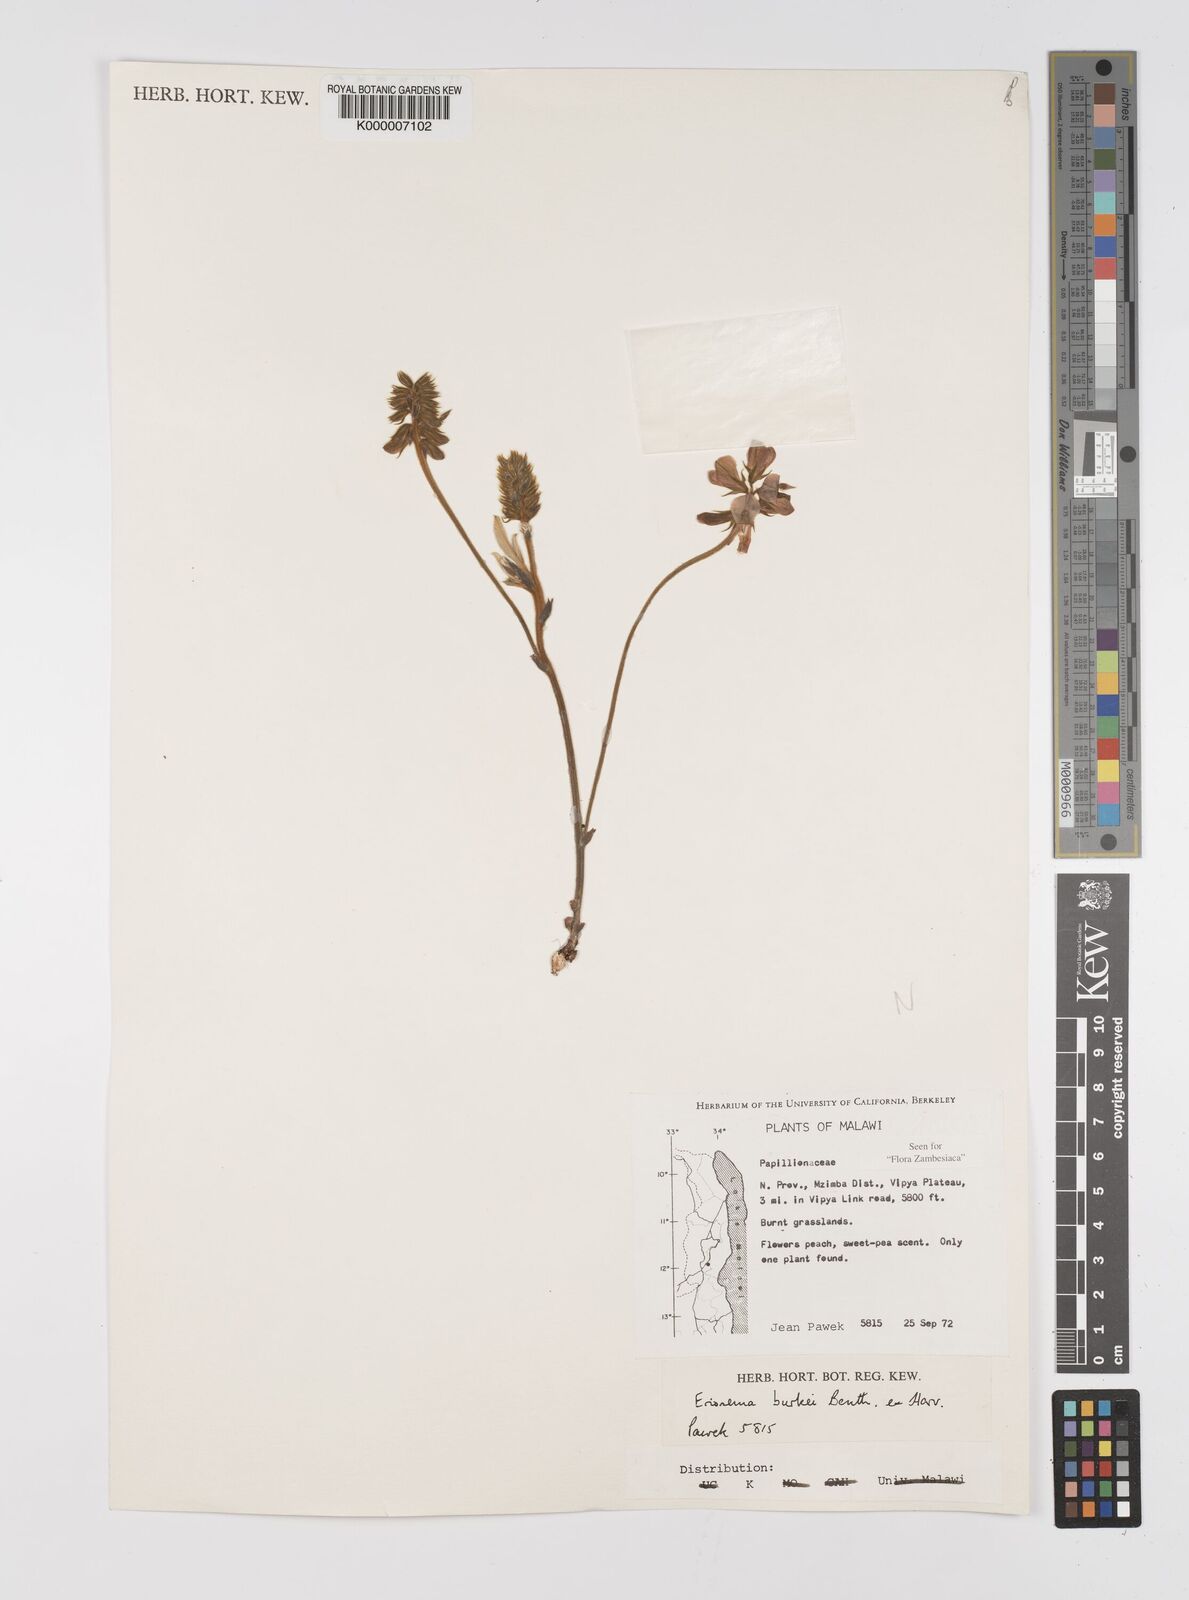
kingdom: Plantae
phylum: Tracheophyta
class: Magnoliopsida
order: Fabales
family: Fabaceae
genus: Eriosema
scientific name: Eriosema burkei
